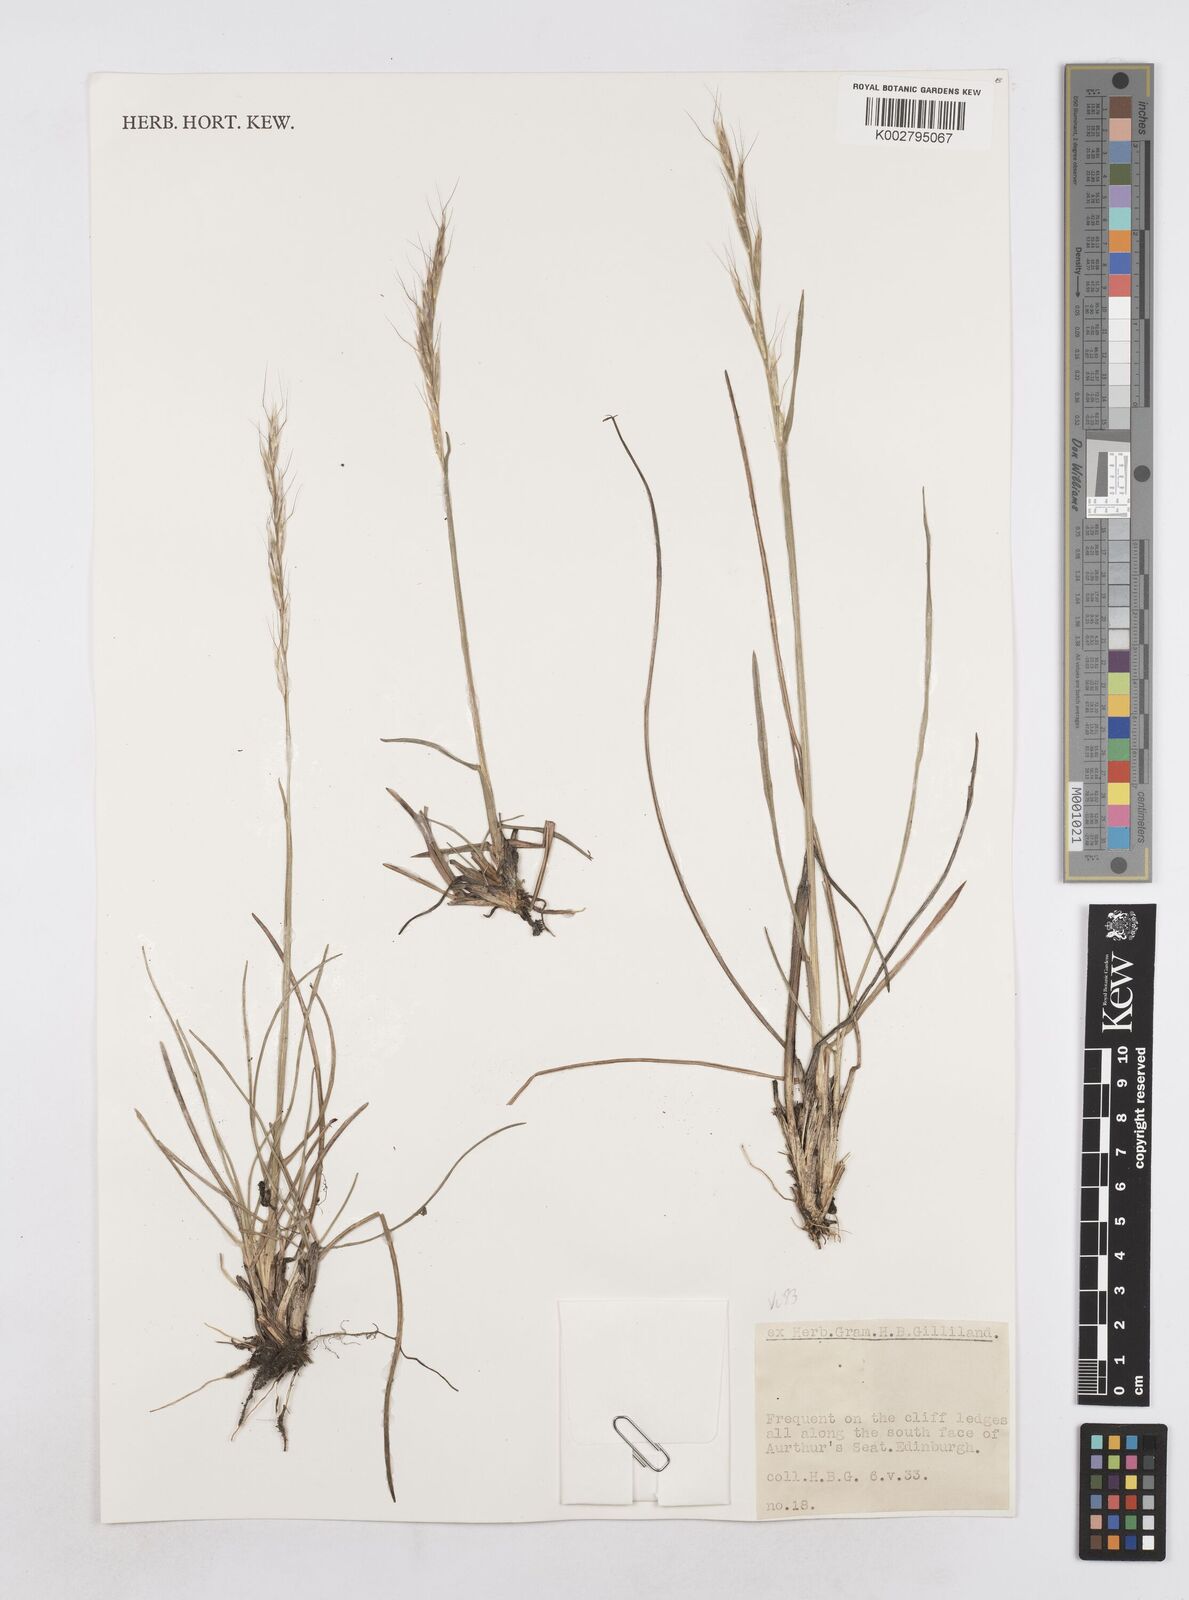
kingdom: Plantae
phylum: Tracheophyta
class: Liliopsida
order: Poales
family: Poaceae
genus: Helictotrichon
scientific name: Helictotrichon
